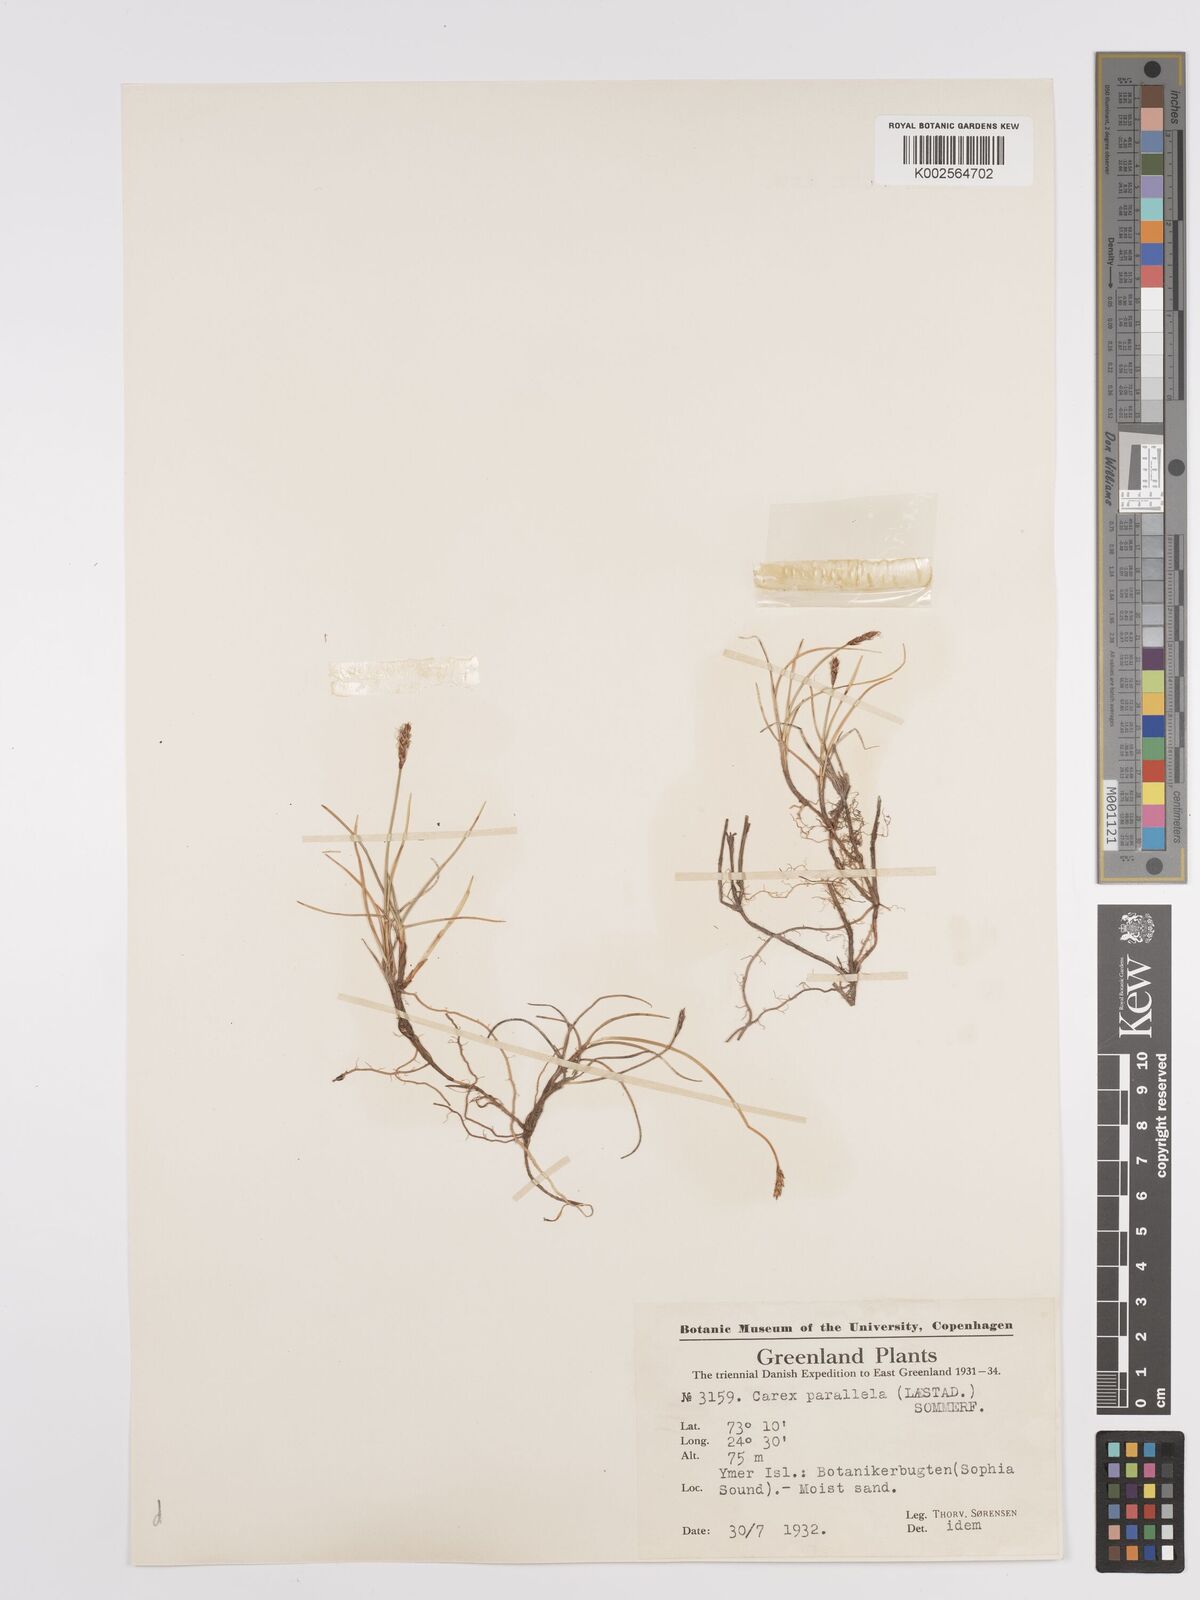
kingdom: Plantae
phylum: Tracheophyta
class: Liliopsida
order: Poales
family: Cyperaceae
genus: Carex
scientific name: Carex parallela
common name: Parallel sedge
